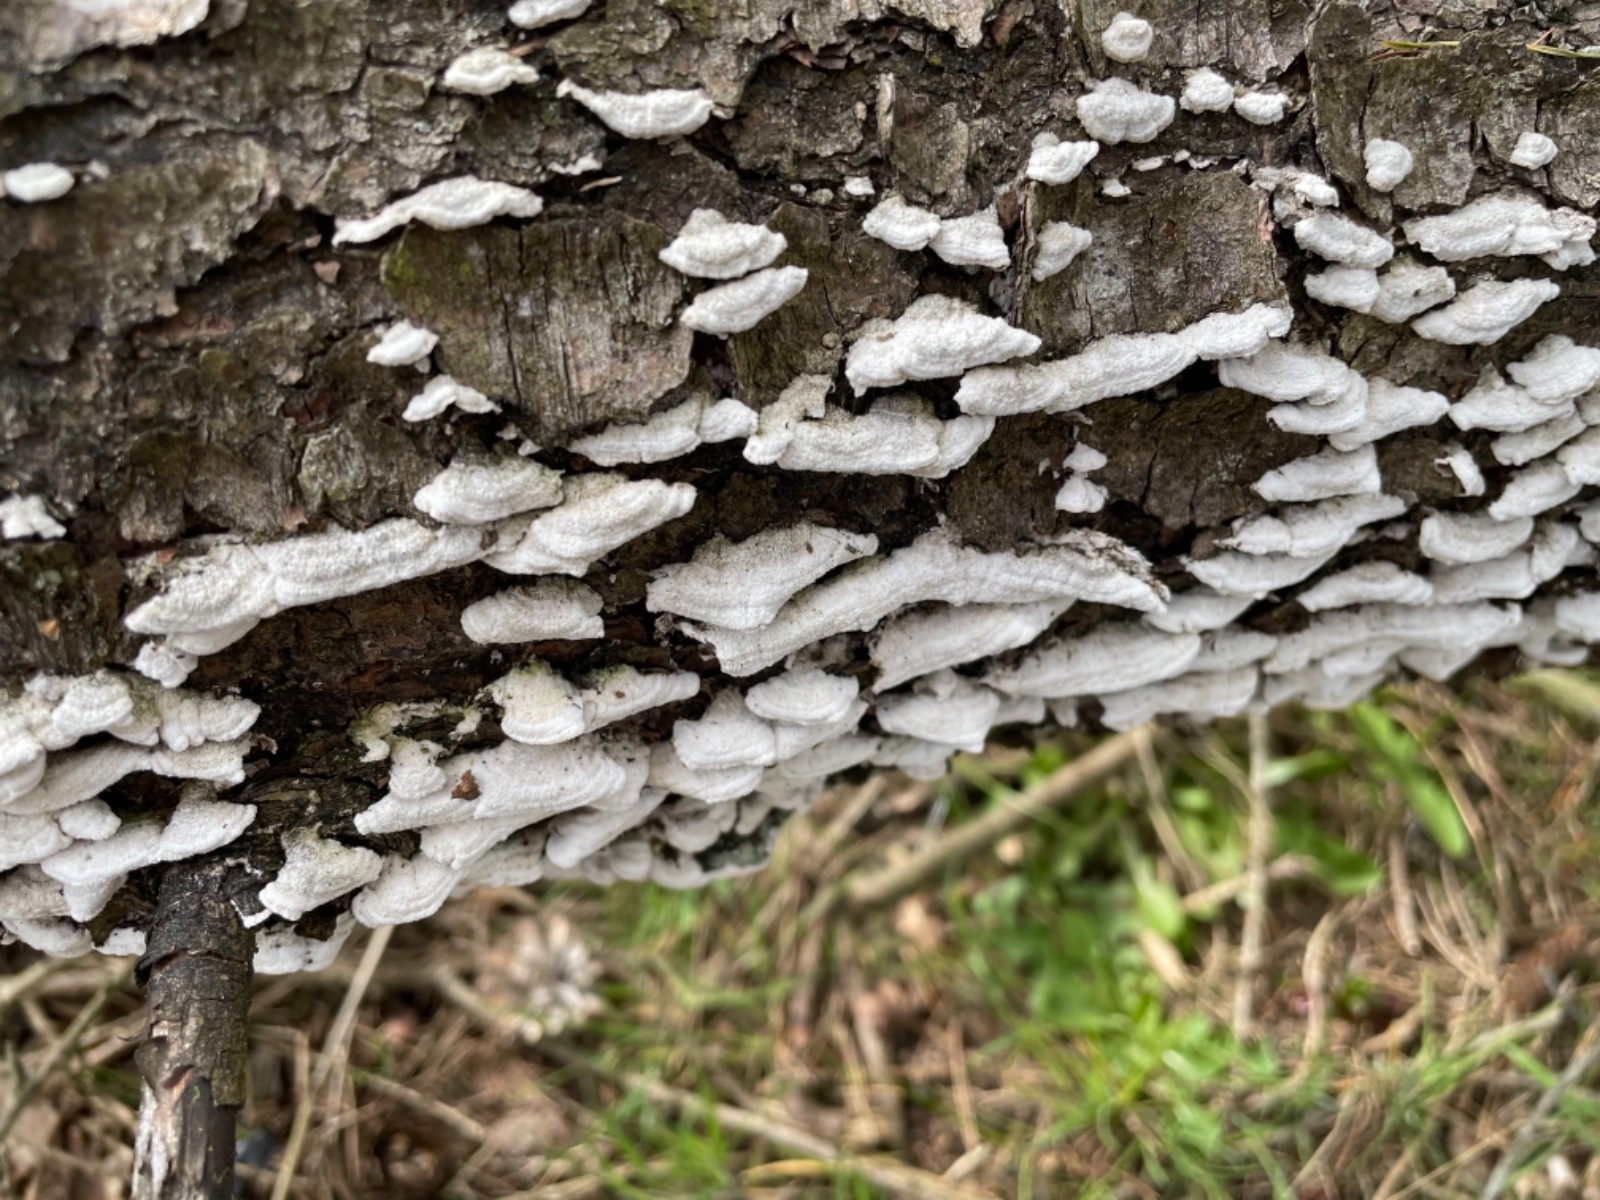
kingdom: Fungi
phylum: Basidiomycota
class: Agaricomycetes
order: Hymenochaetales
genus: Trichaptum
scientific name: Trichaptum abietinum
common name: almindelig violporesvamp
